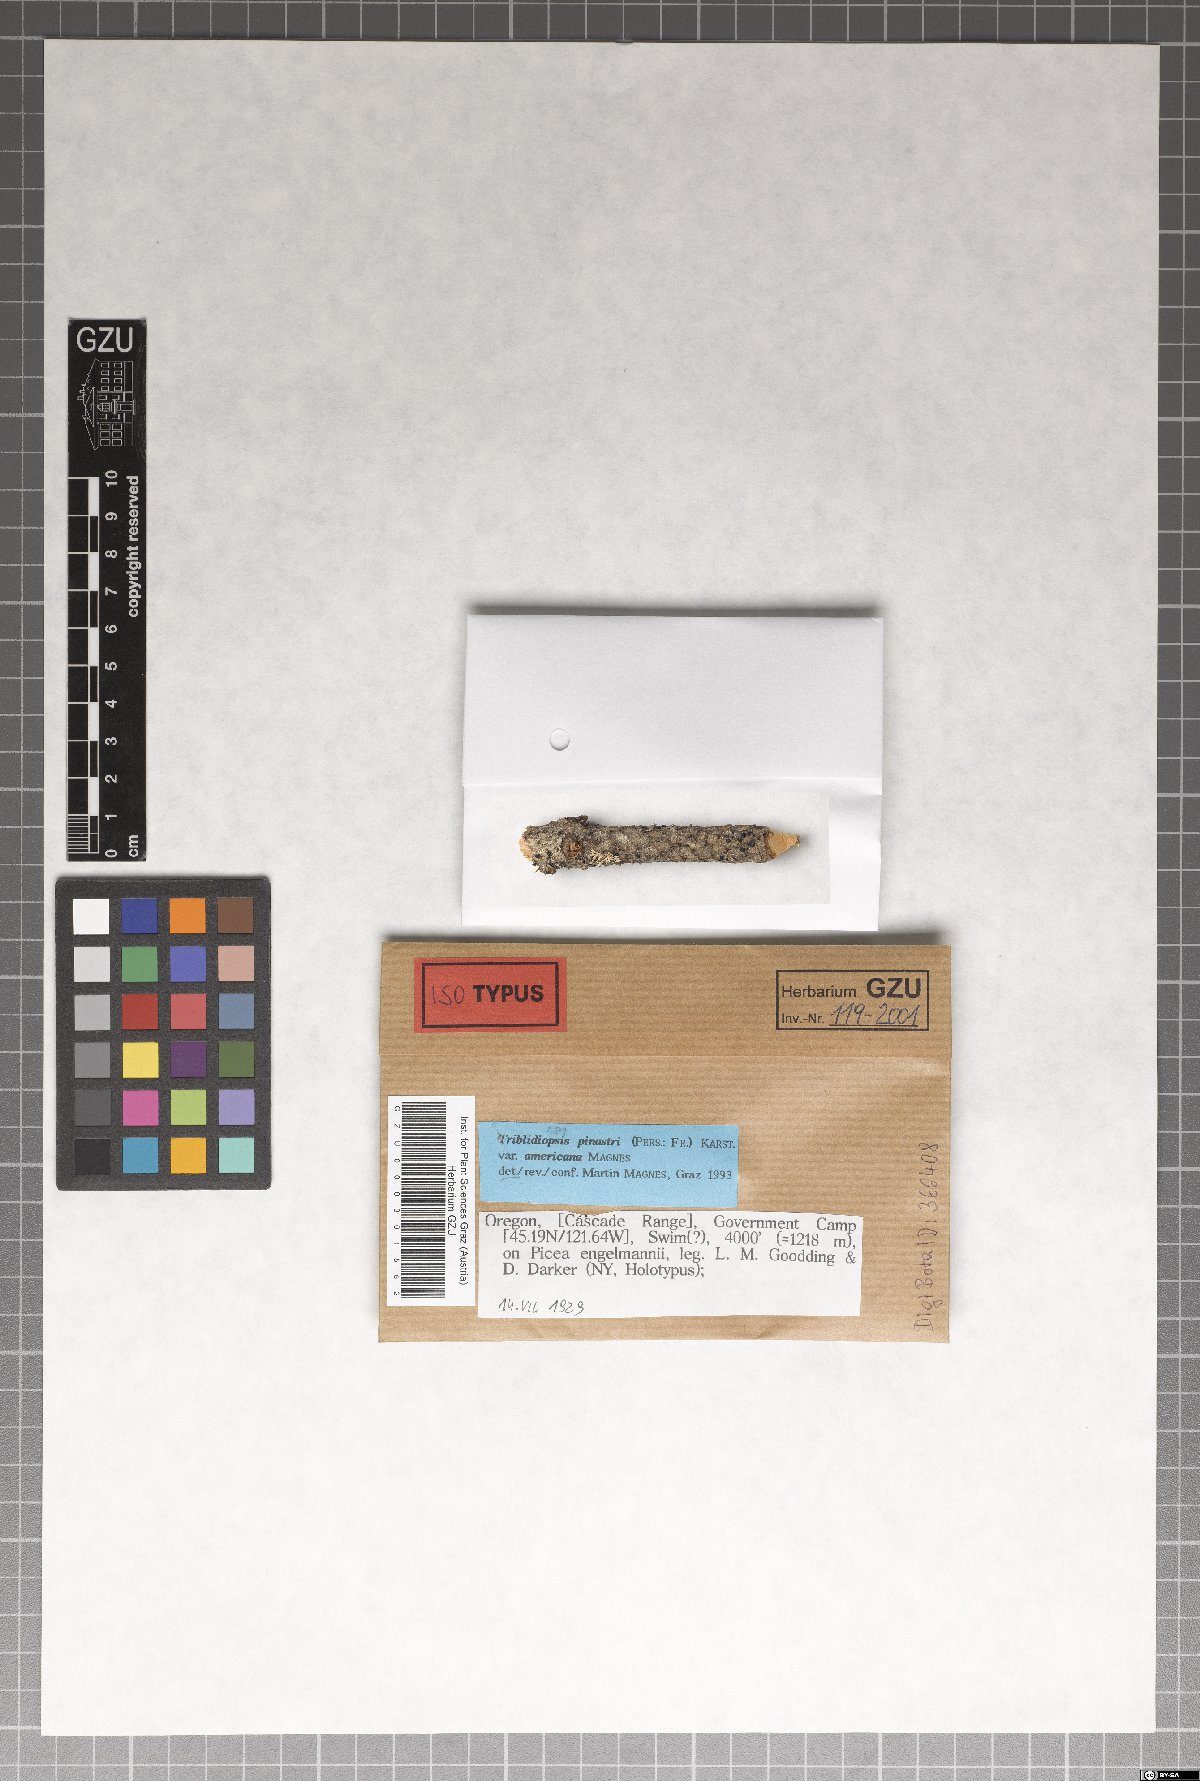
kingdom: Fungi
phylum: Ascomycota
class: Leotiomycetes
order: Rhytismatales
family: Rhytismataceae
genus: Tryblidiopsis
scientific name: Tryblidiopsis pinastri
